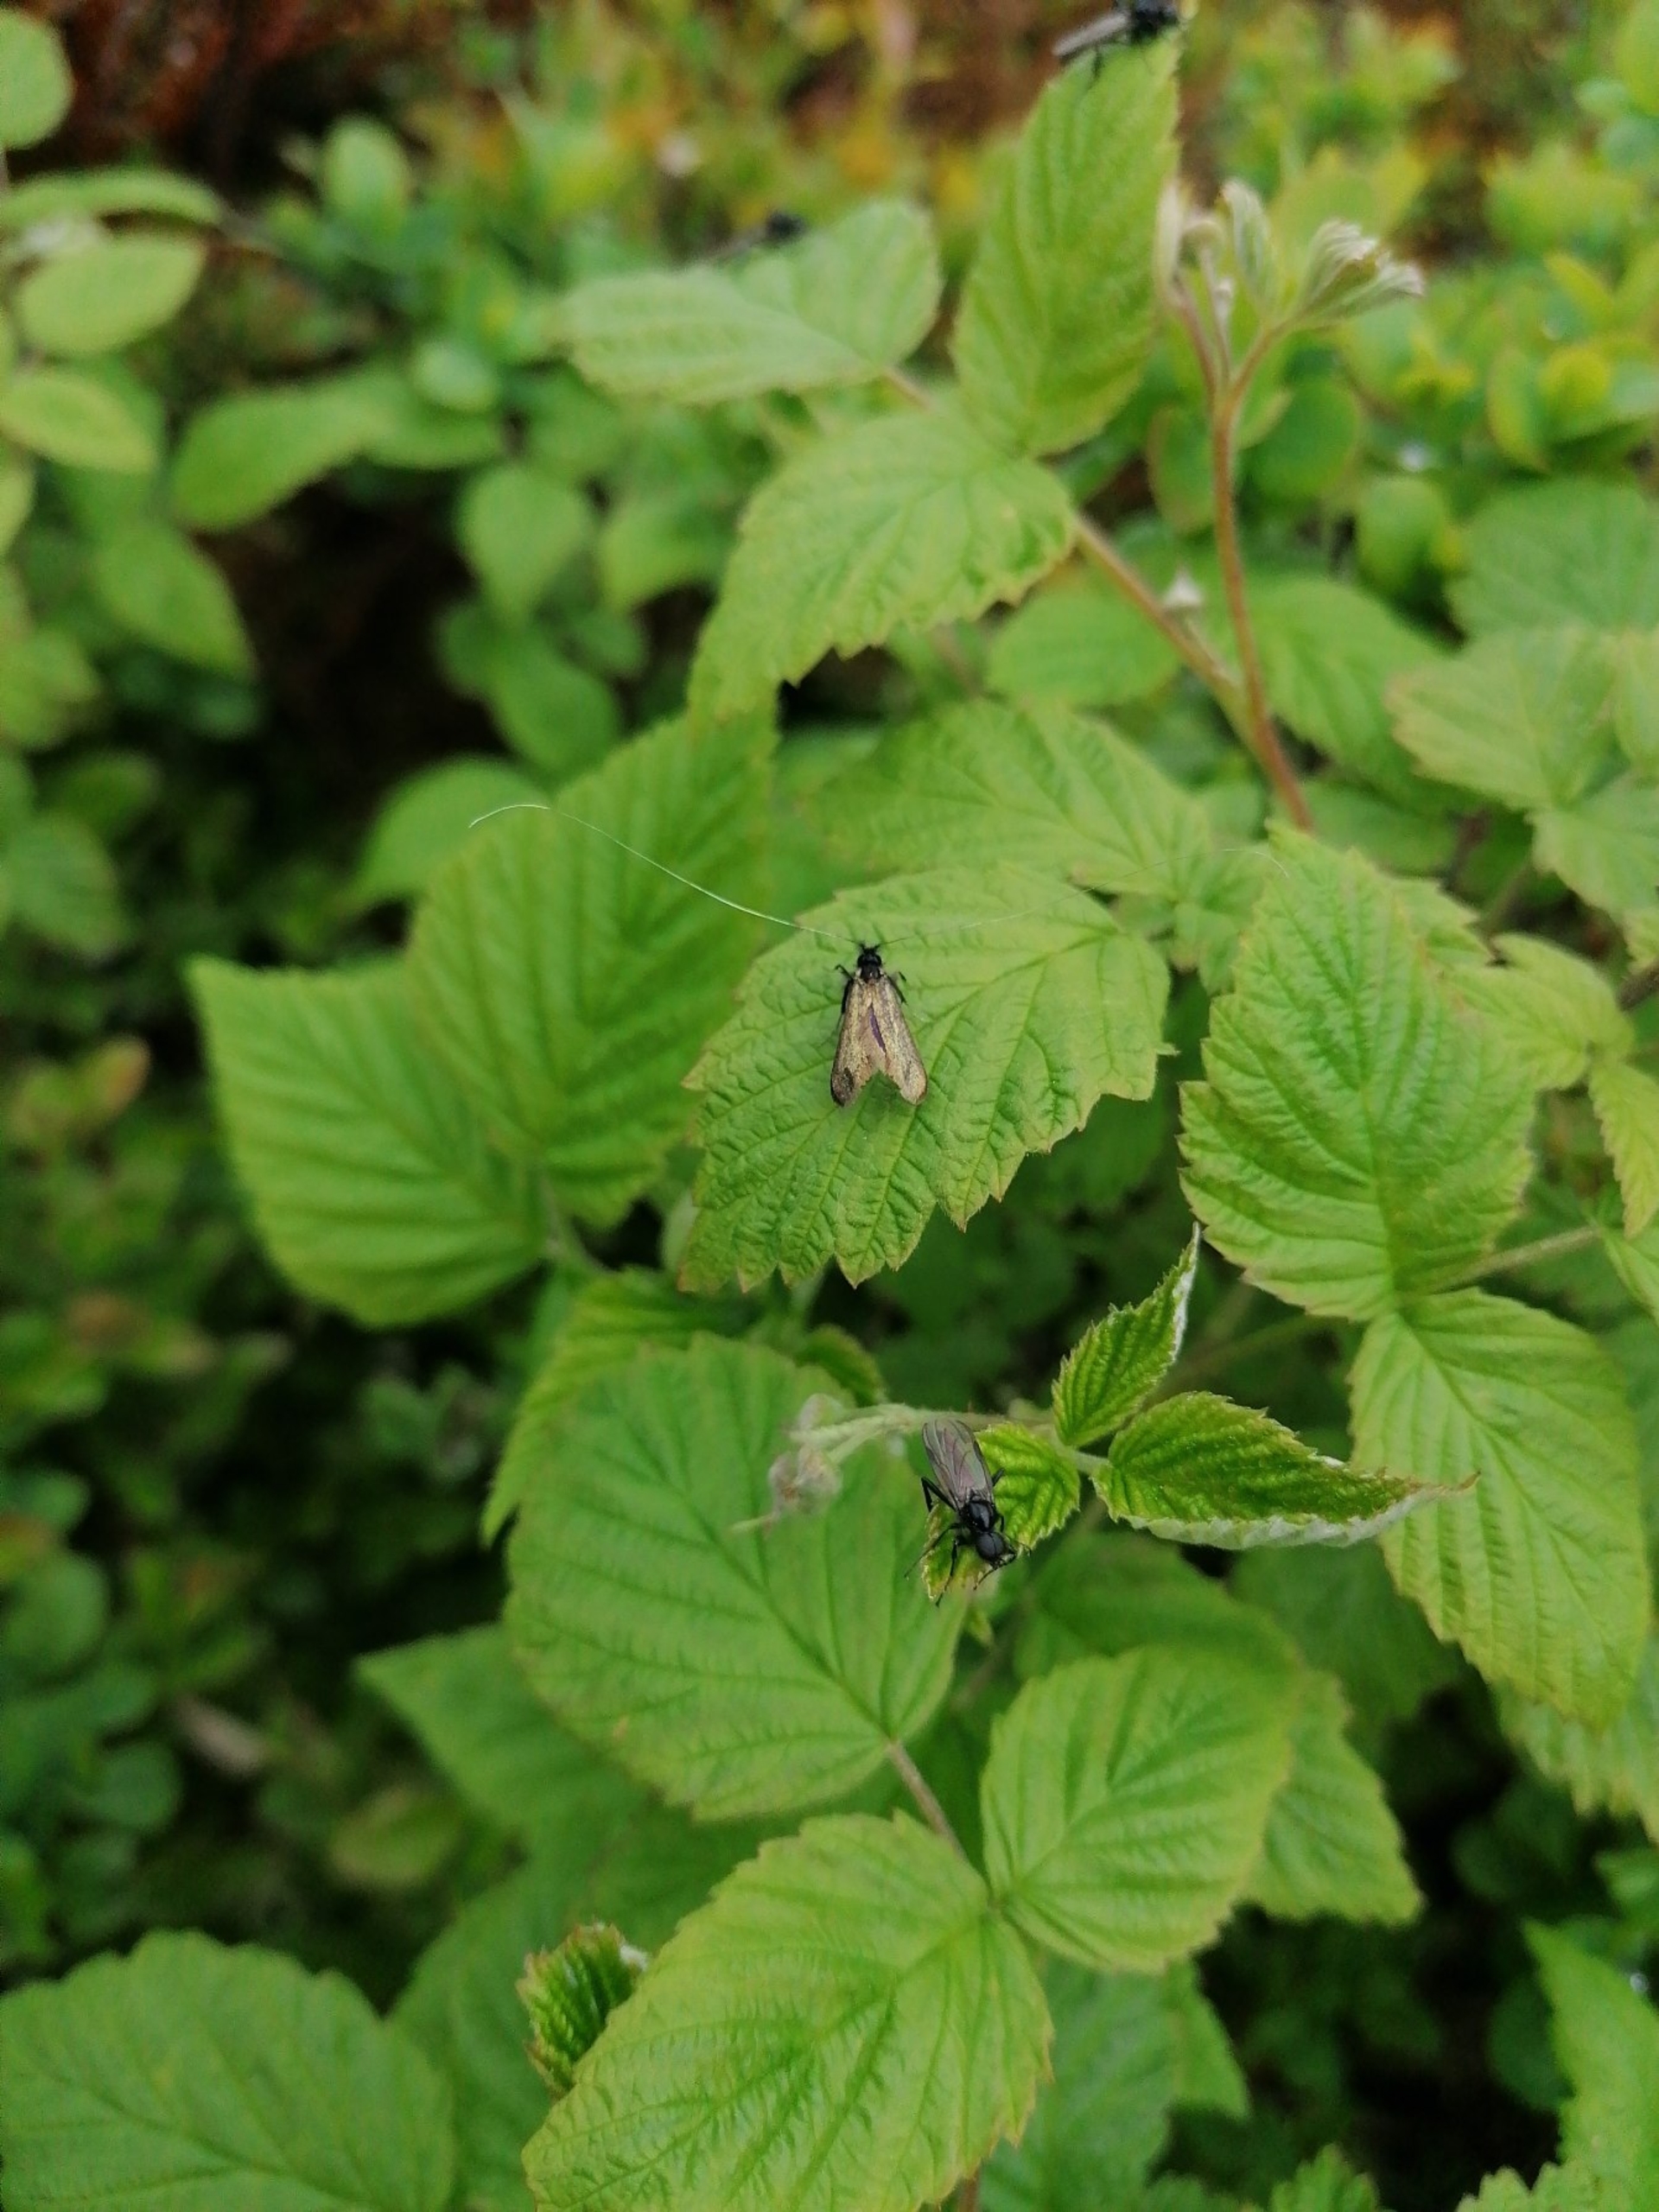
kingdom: Animalia
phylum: Arthropoda
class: Insecta
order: Lepidoptera
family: Adelidae
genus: Adela
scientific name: Adela viridella
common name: Egelanghornsmøl
